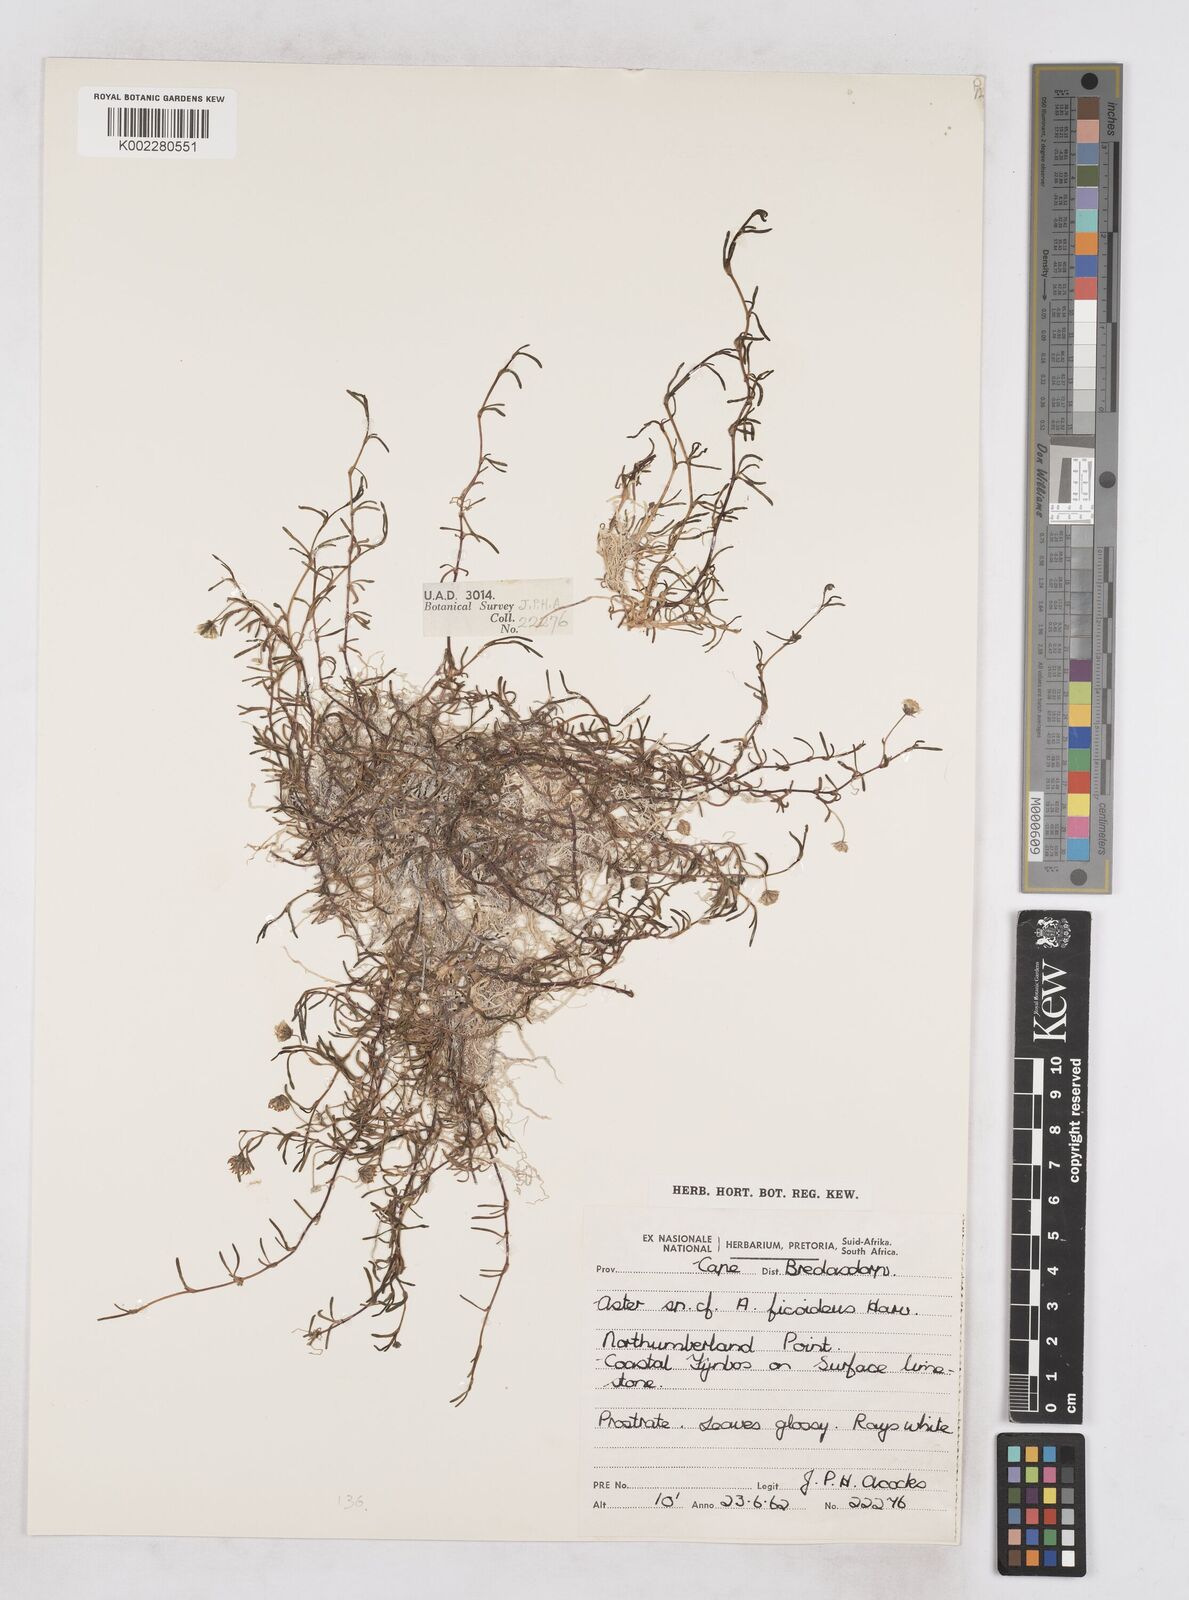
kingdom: Plantae
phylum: Tracheophyta
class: Magnoliopsida
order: Asterales
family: Asteraceae
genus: Poecilolepis
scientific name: Poecilolepis maritima
